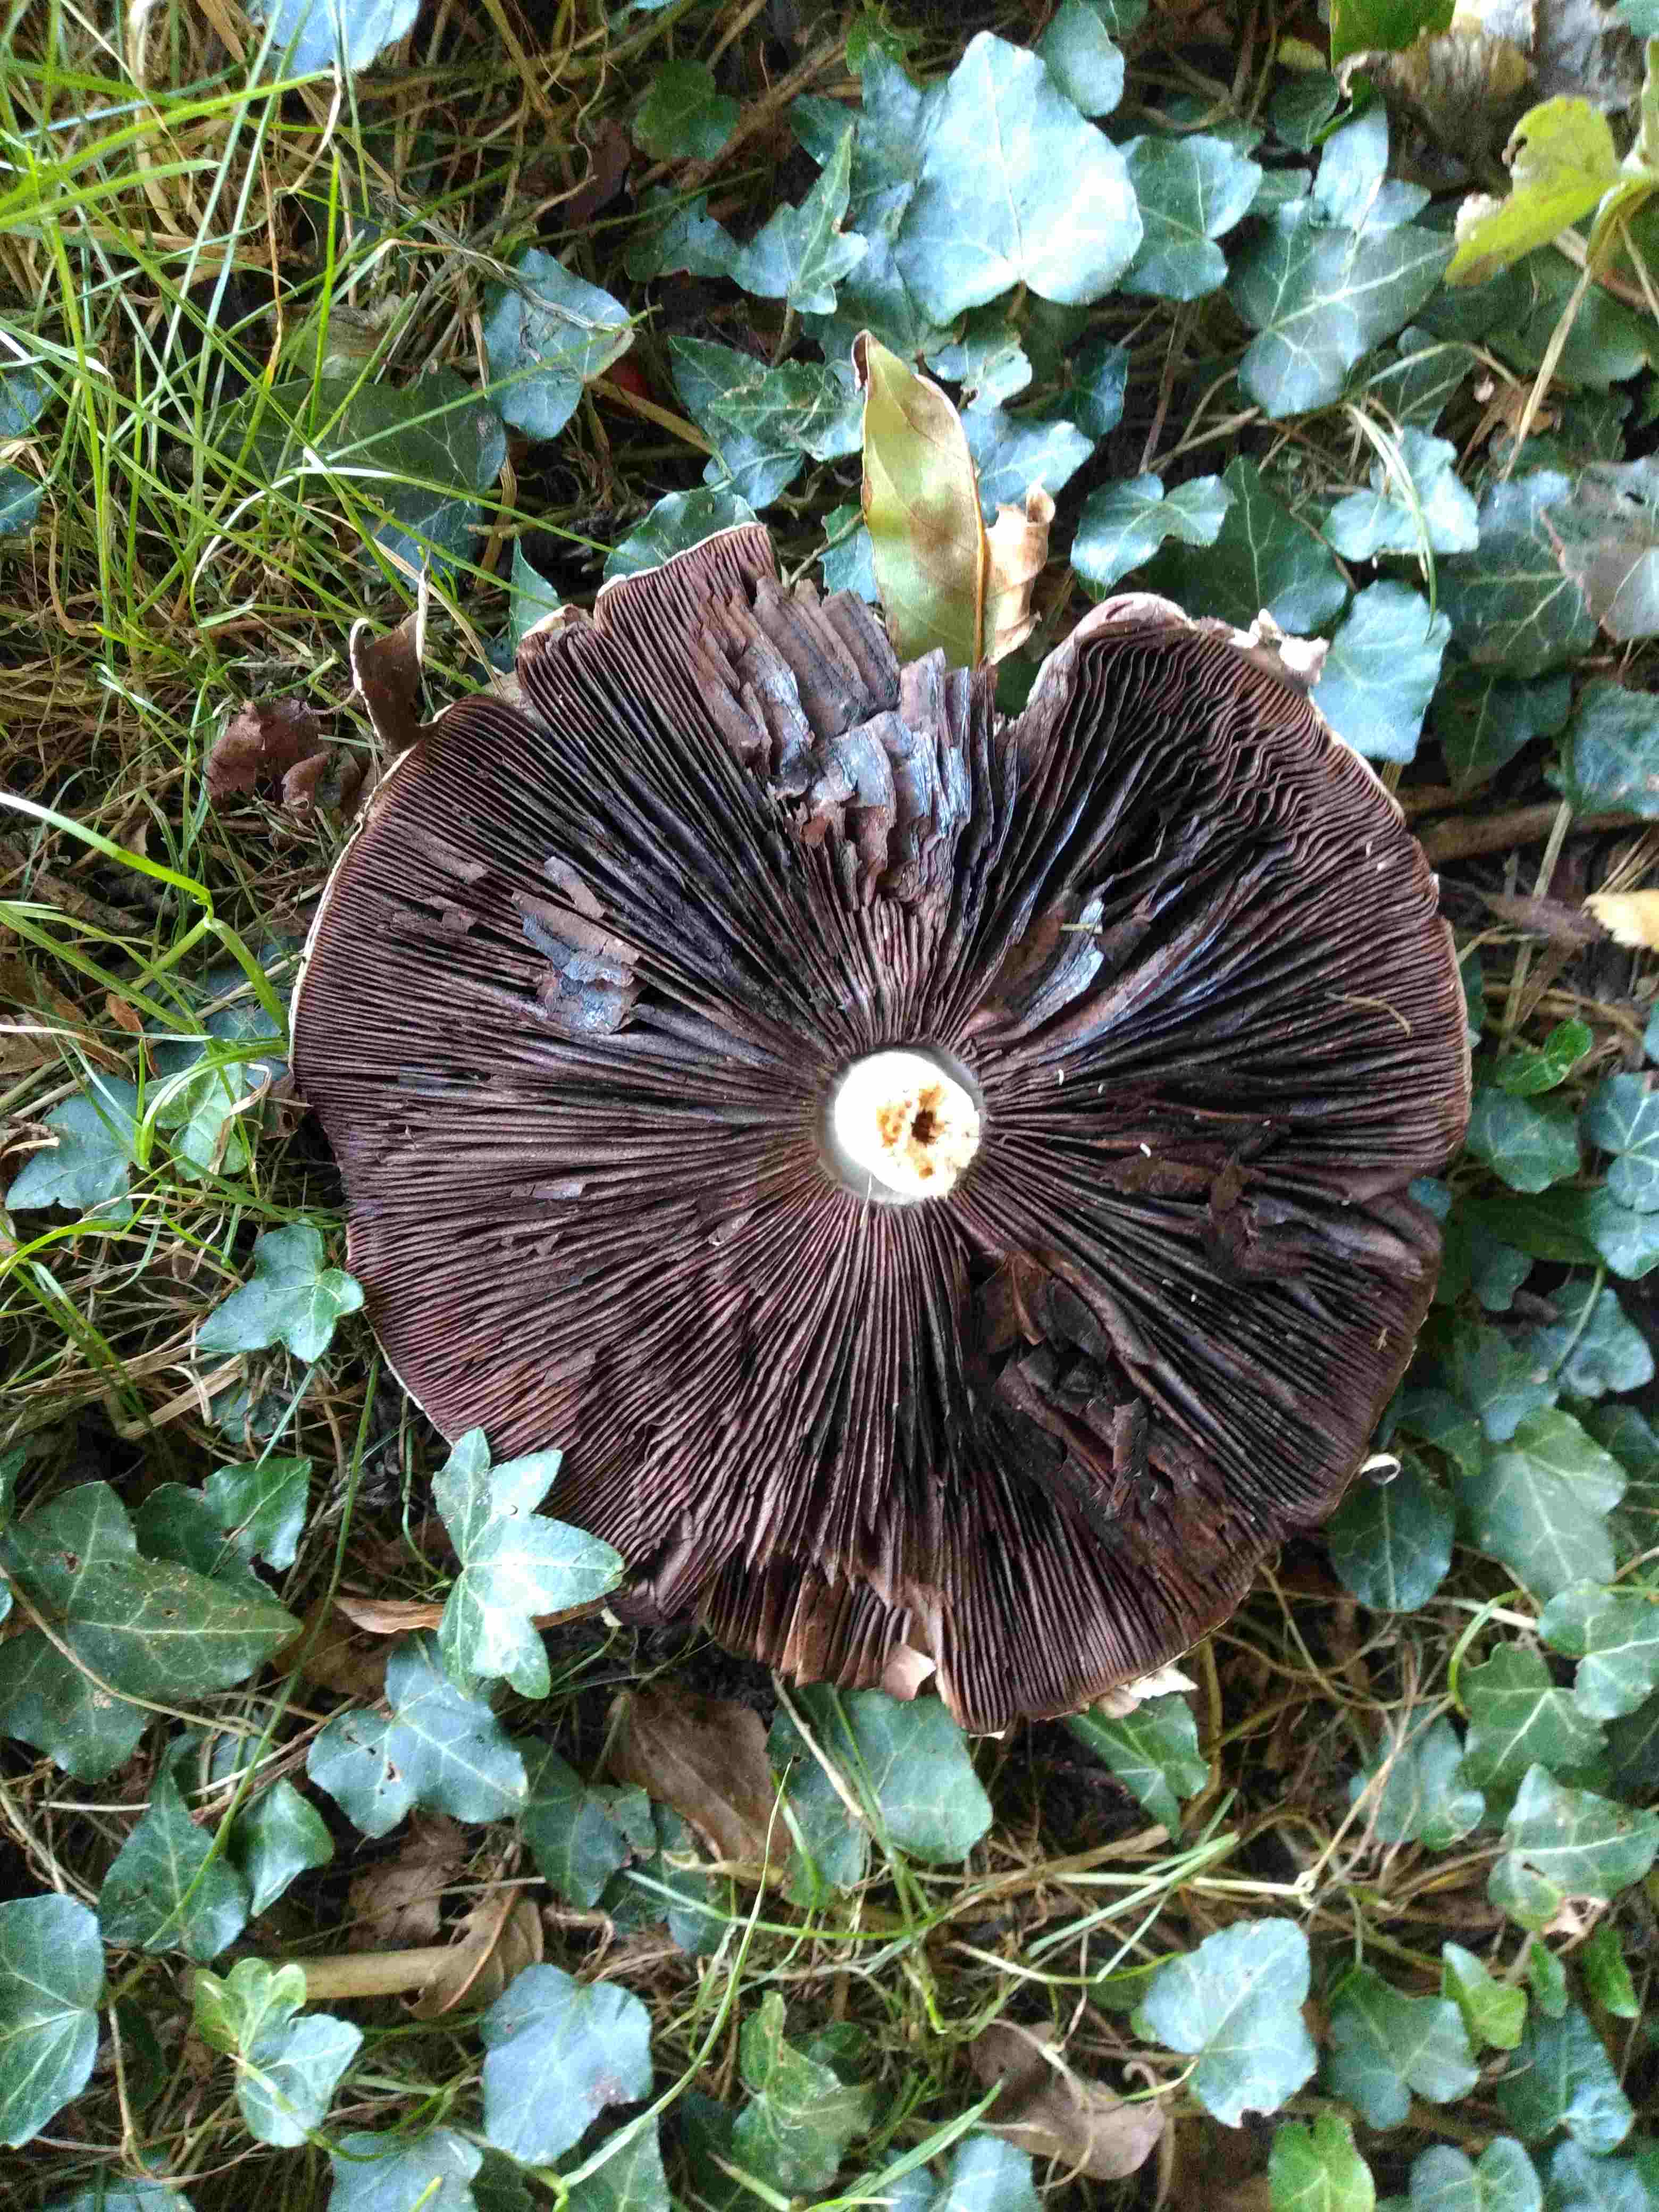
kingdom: Fungi
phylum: Basidiomycota
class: Agaricomycetes
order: Agaricales
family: Agaricaceae
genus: Agaricus
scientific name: Agaricus
